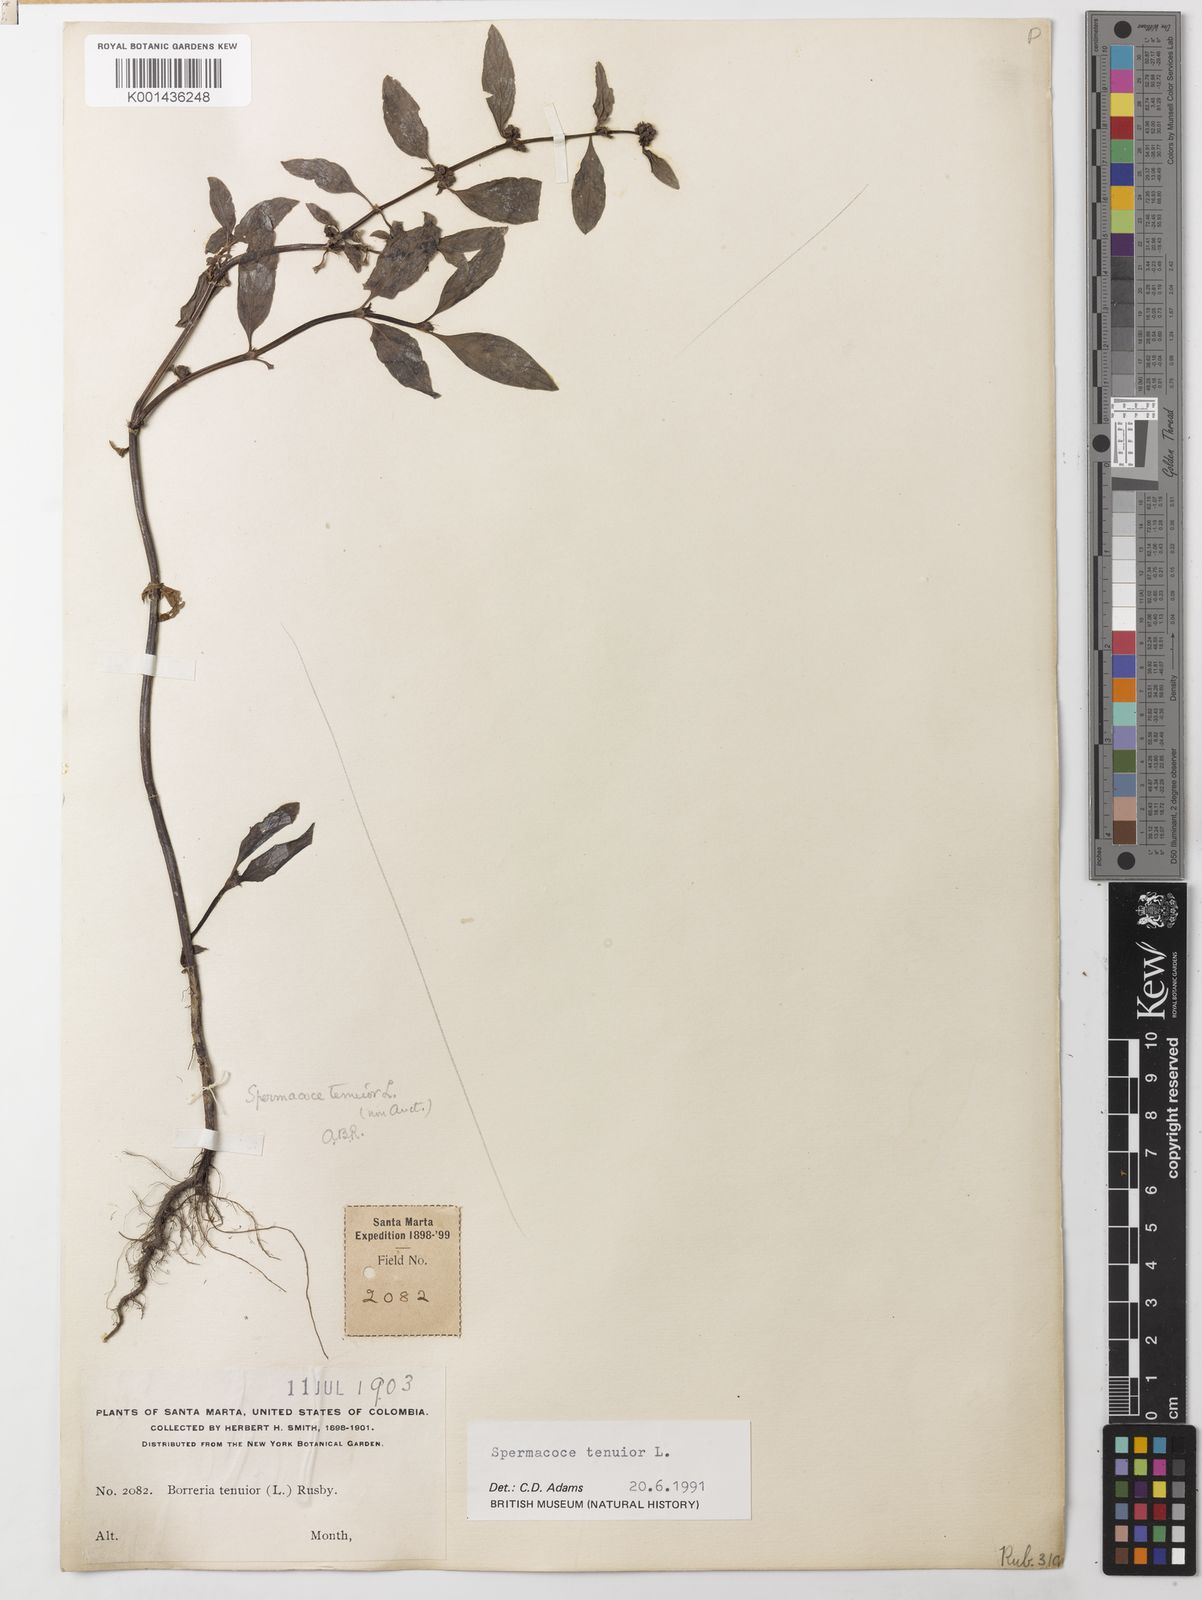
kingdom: Plantae
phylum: Tracheophyta
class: Magnoliopsida
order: Gentianales
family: Rubiaceae
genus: Spermacoce
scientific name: Spermacoce tenuior
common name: River false buttonweed
